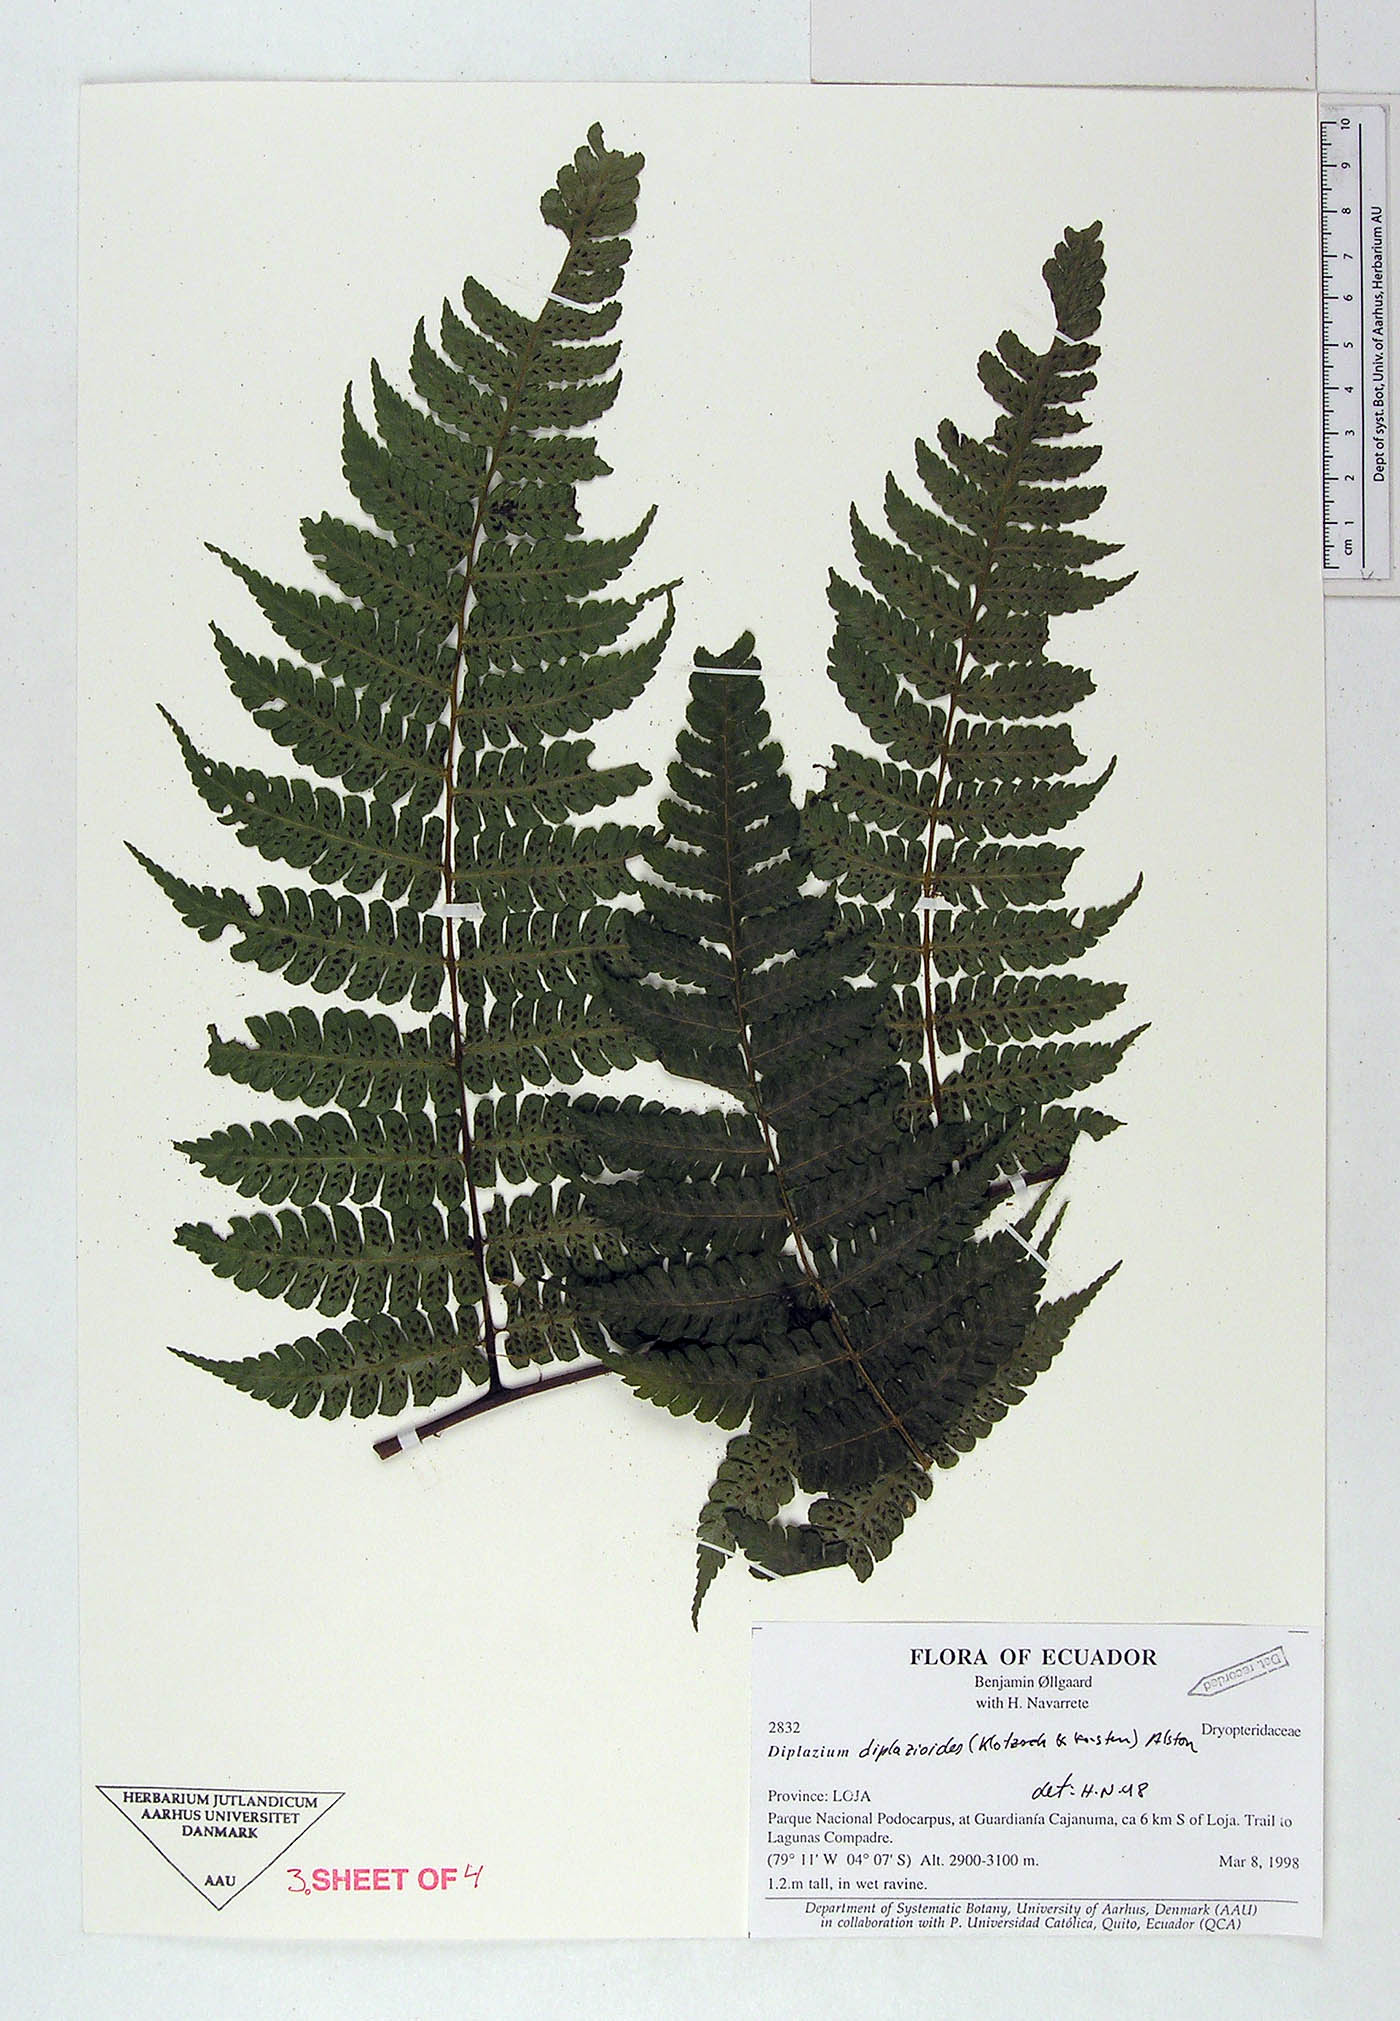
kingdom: Plantae
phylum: Tracheophyta
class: Polypodiopsida
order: Polypodiales
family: Athyriaceae
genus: Diplazium
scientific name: Diplazium diplazioides
